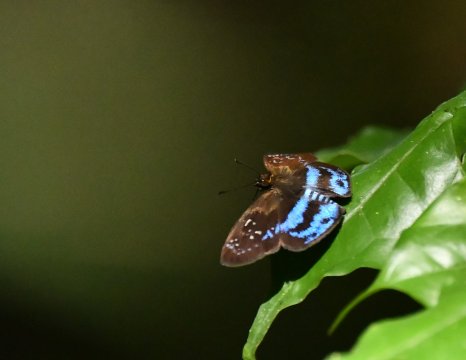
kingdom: Animalia
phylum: Arthropoda
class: Insecta
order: Lepidoptera
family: Hesperiidae
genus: Quadrus
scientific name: Quadrus contubernalis
